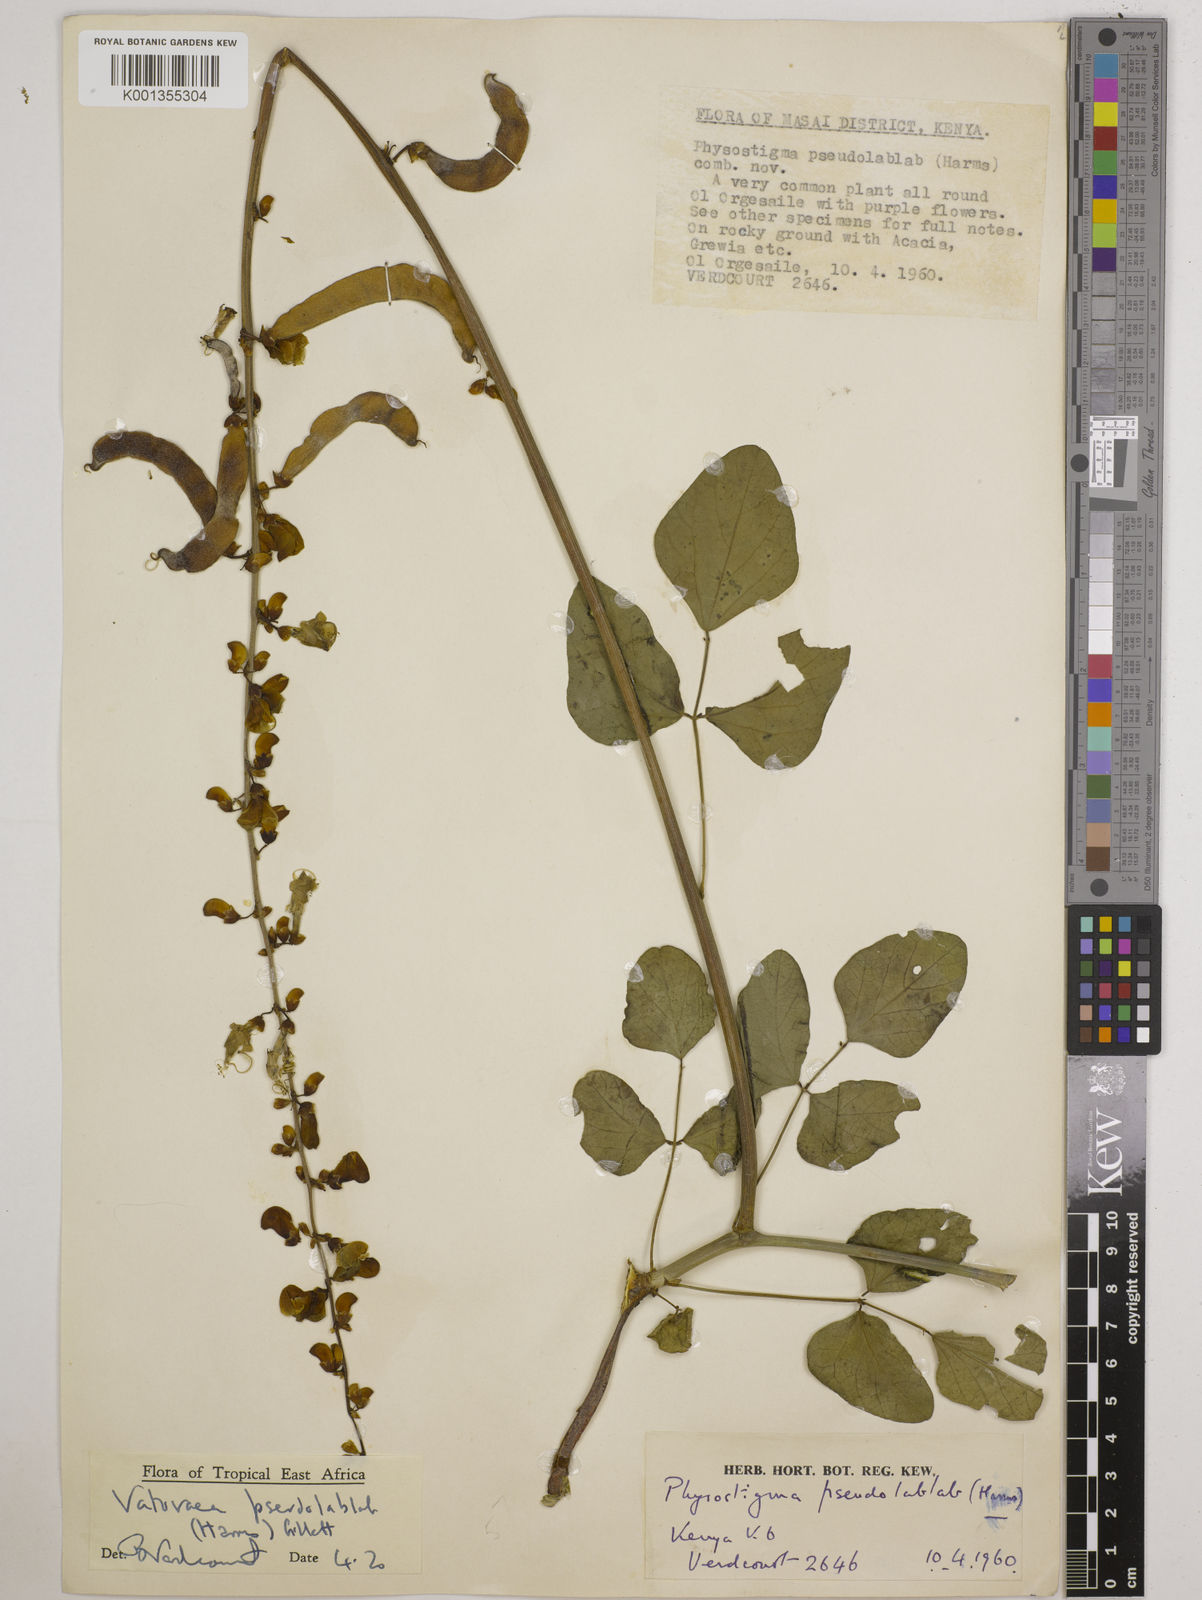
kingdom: Plantae
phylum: Tracheophyta
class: Magnoliopsida
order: Fabales
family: Fabaceae
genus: Vatovaea
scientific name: Vatovaea pseudolablab
